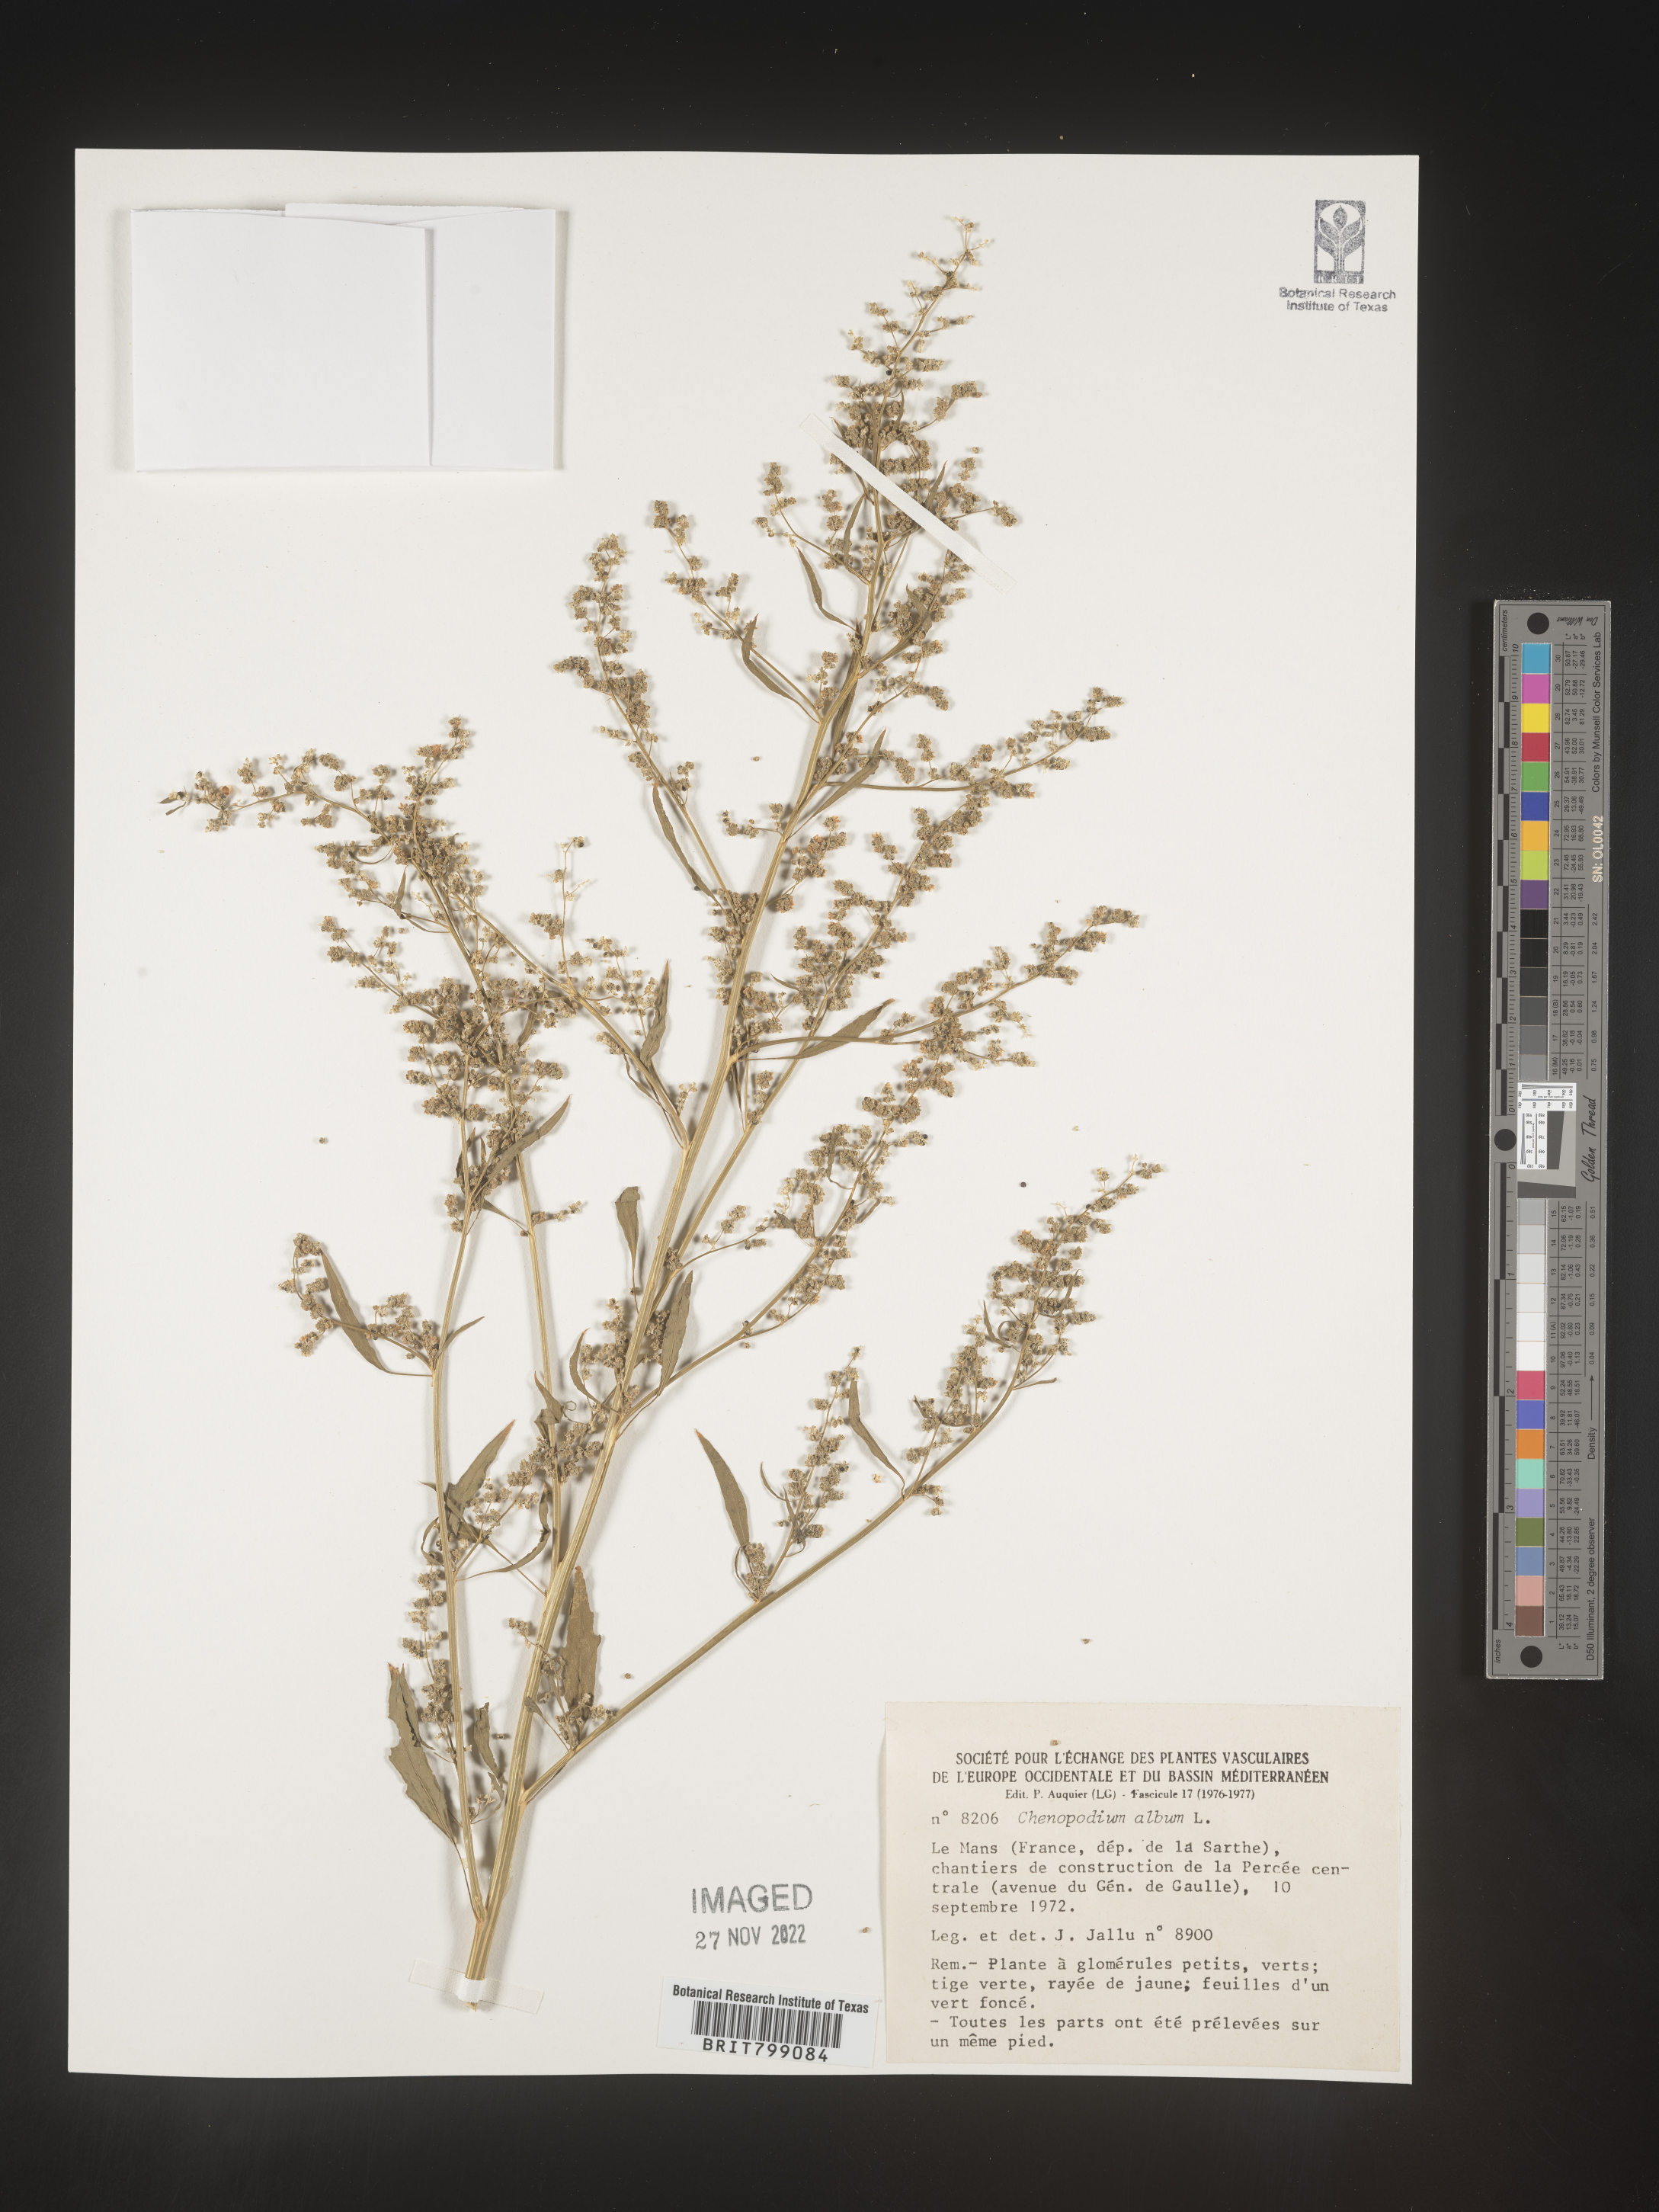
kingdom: Plantae
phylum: Tracheophyta
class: Magnoliopsida
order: Caryophyllales
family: Amaranthaceae
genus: Chenopodium
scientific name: Chenopodium
